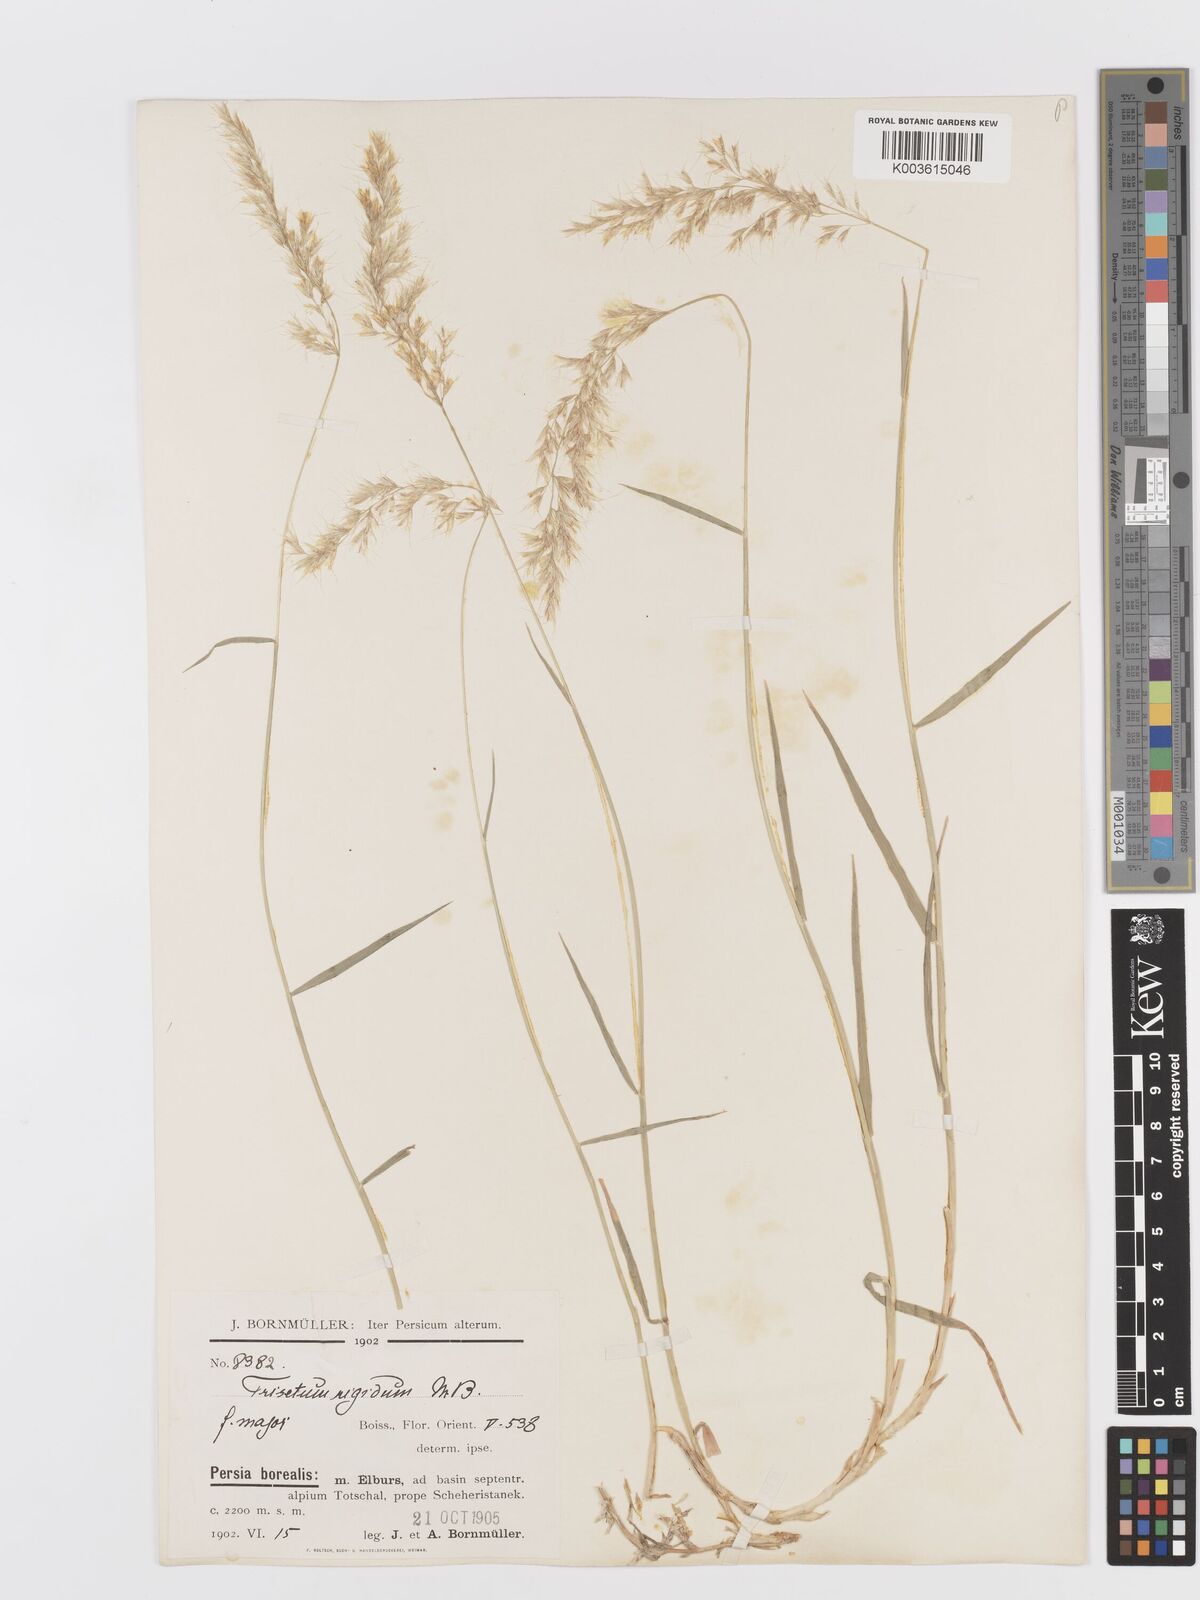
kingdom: Plantae
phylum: Tracheophyta
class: Liliopsida
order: Poales
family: Poaceae
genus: Trisetum
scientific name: Trisetum rigidum
